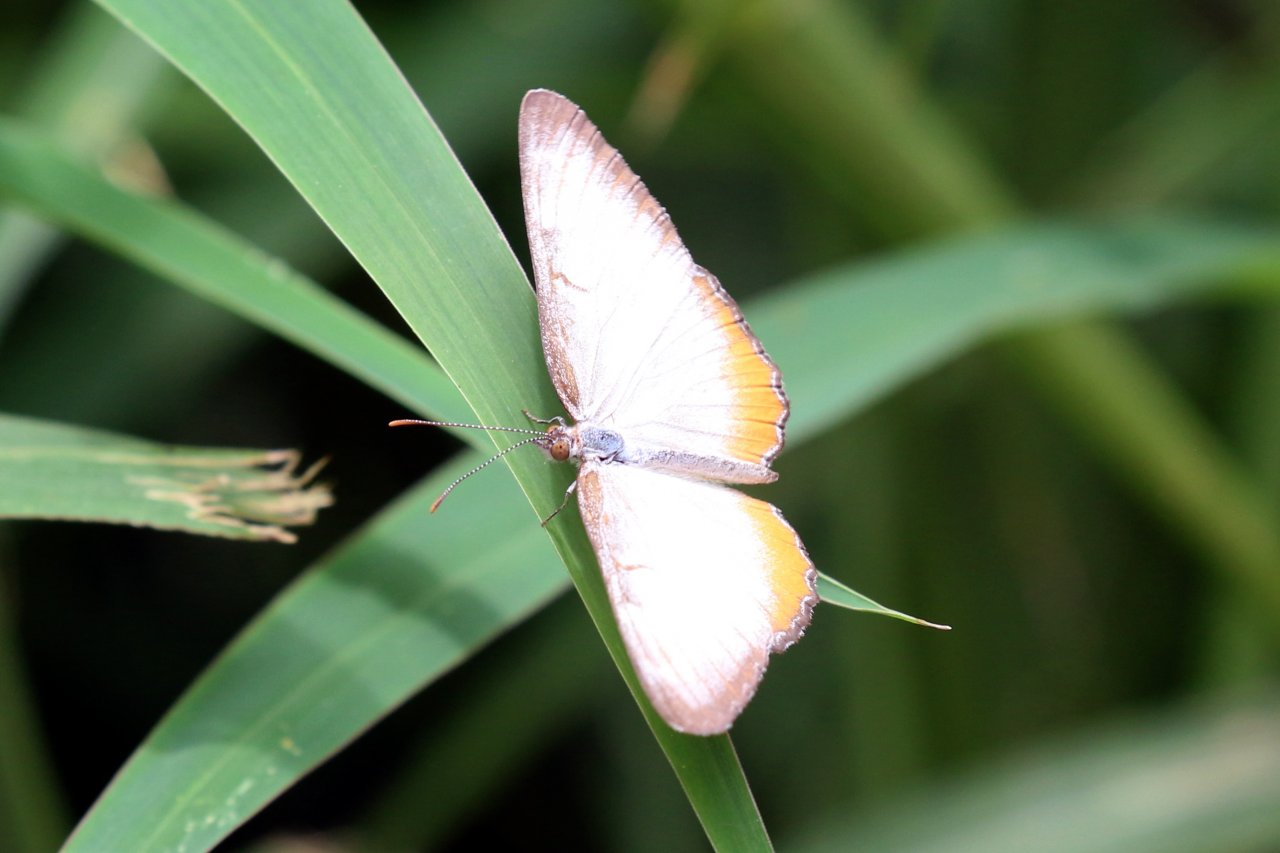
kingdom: Animalia
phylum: Arthropoda
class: Insecta
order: Lepidoptera
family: Nymphalidae
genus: Mestra
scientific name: Mestra amymone
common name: Common Mestra
